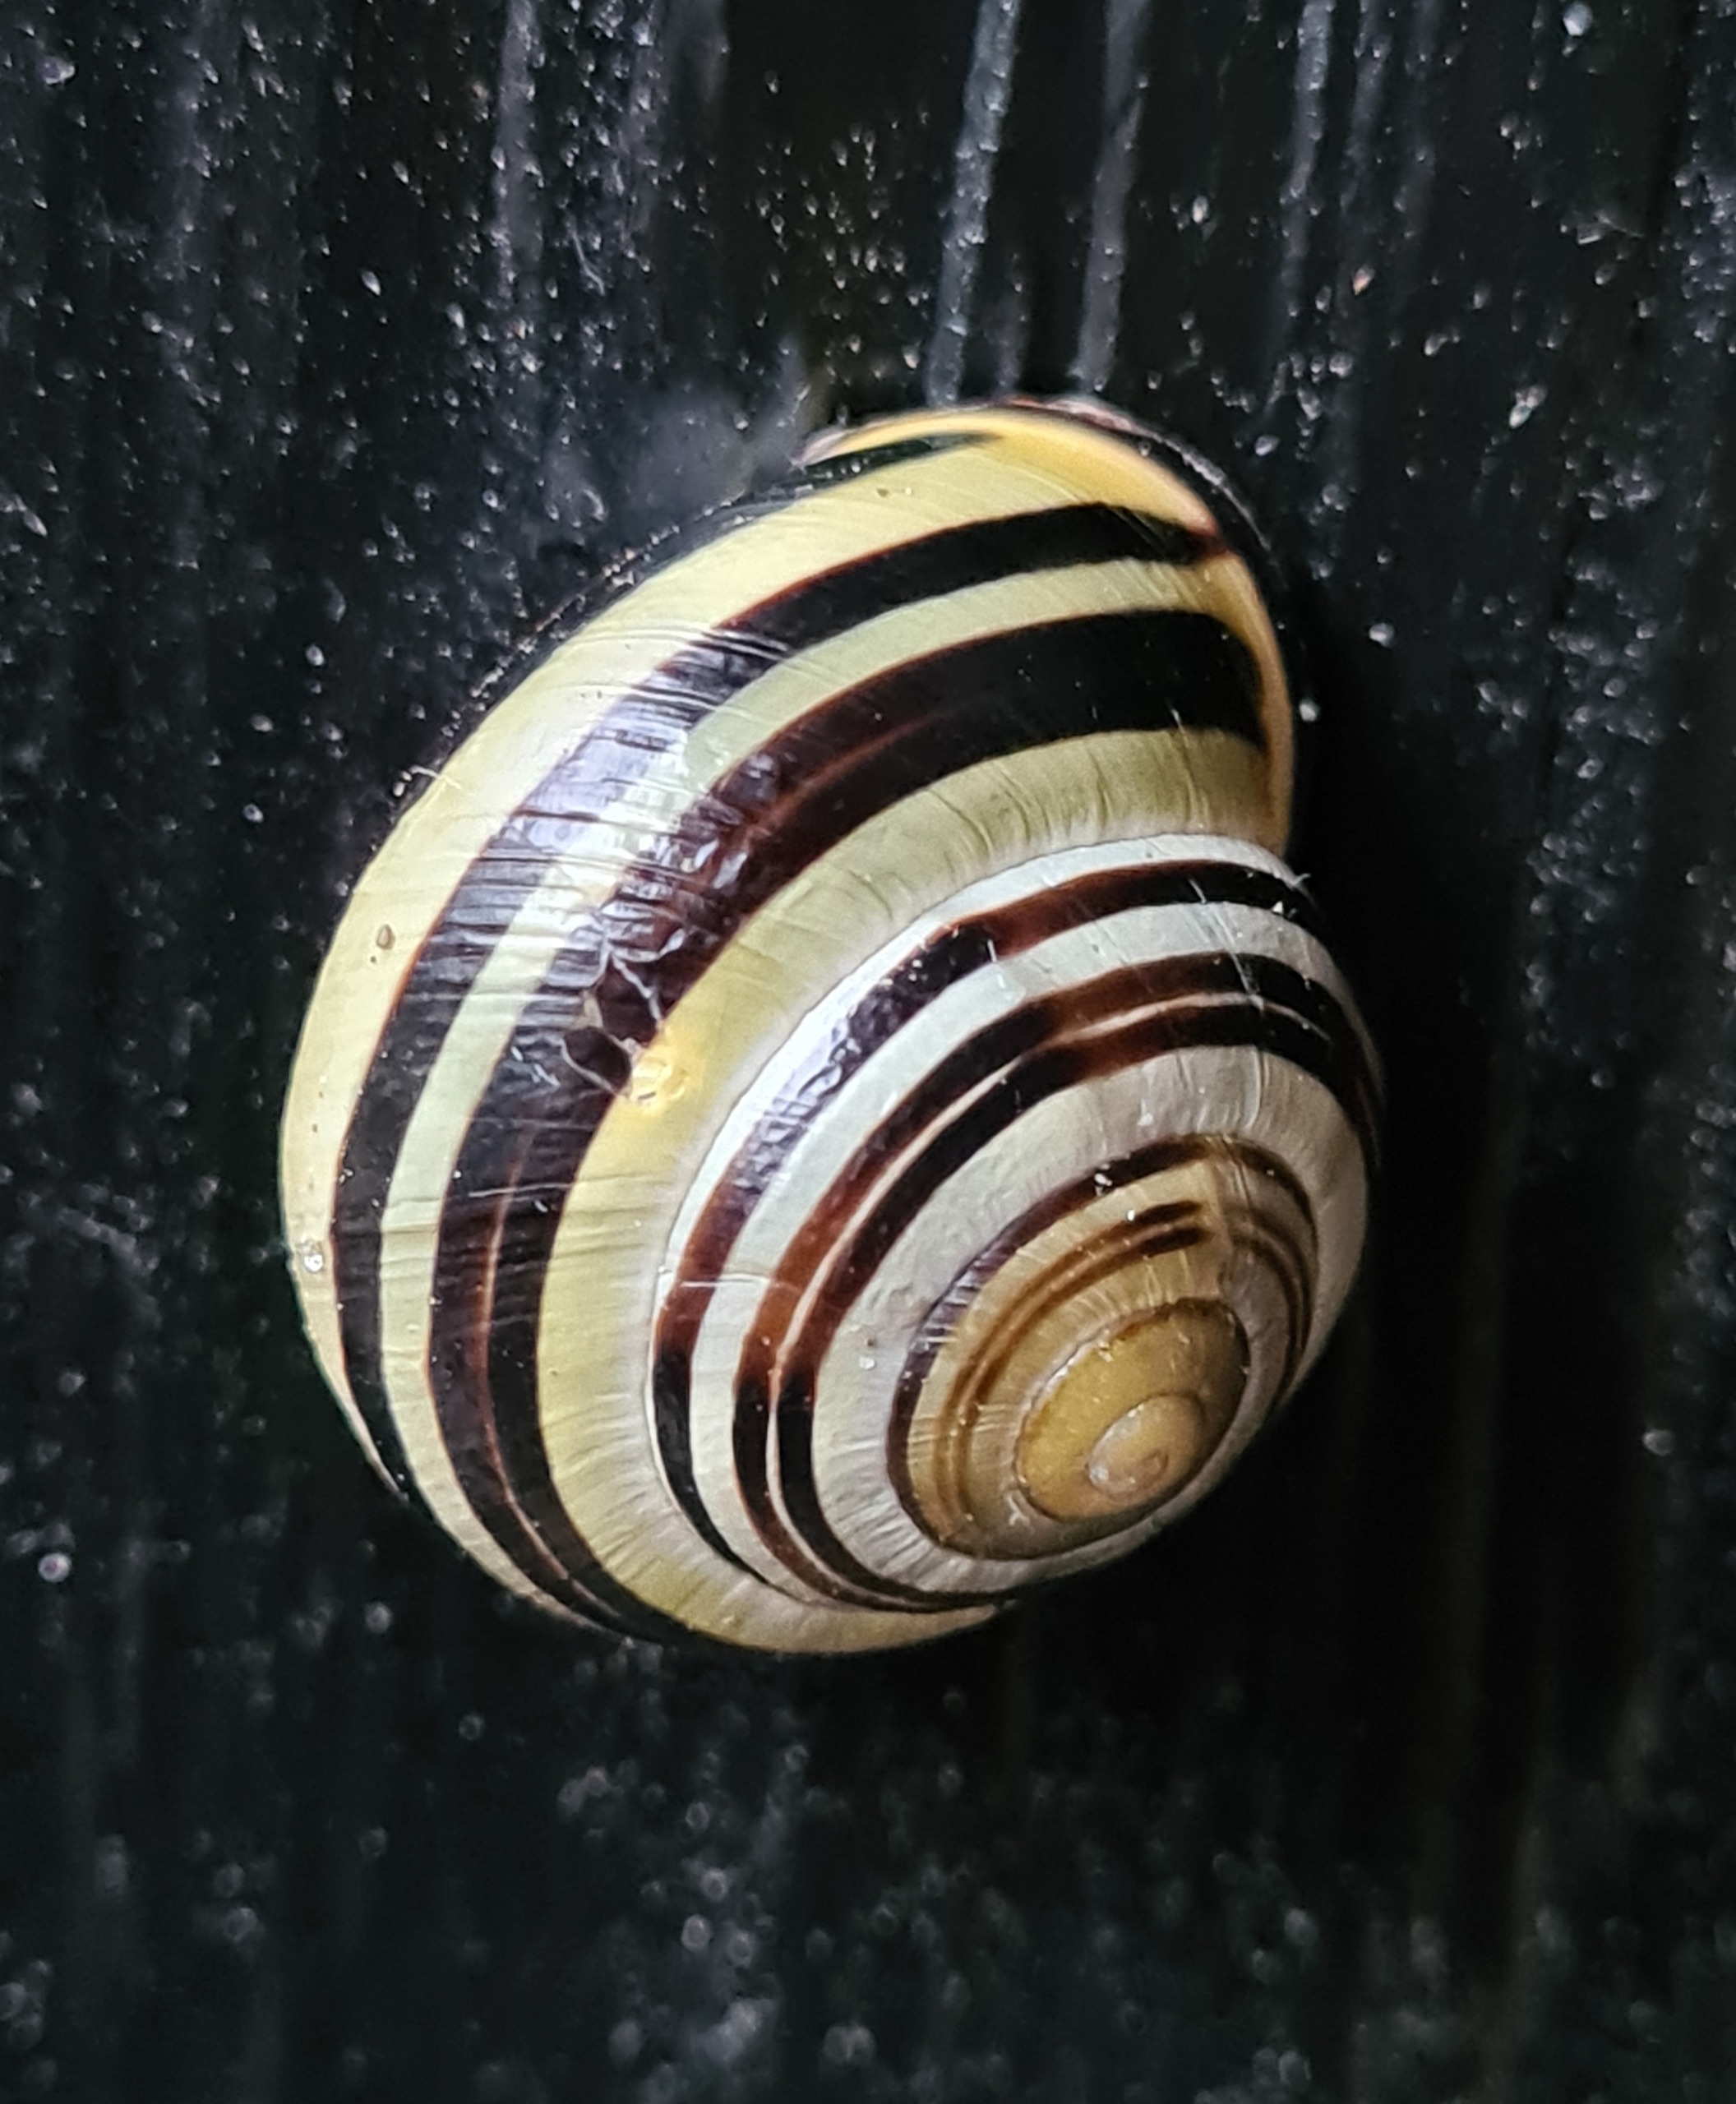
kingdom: Animalia
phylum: Mollusca
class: Gastropoda
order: Stylommatophora
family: Helicidae
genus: Cepaea
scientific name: Cepaea nemoralis
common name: Lundsnegl
